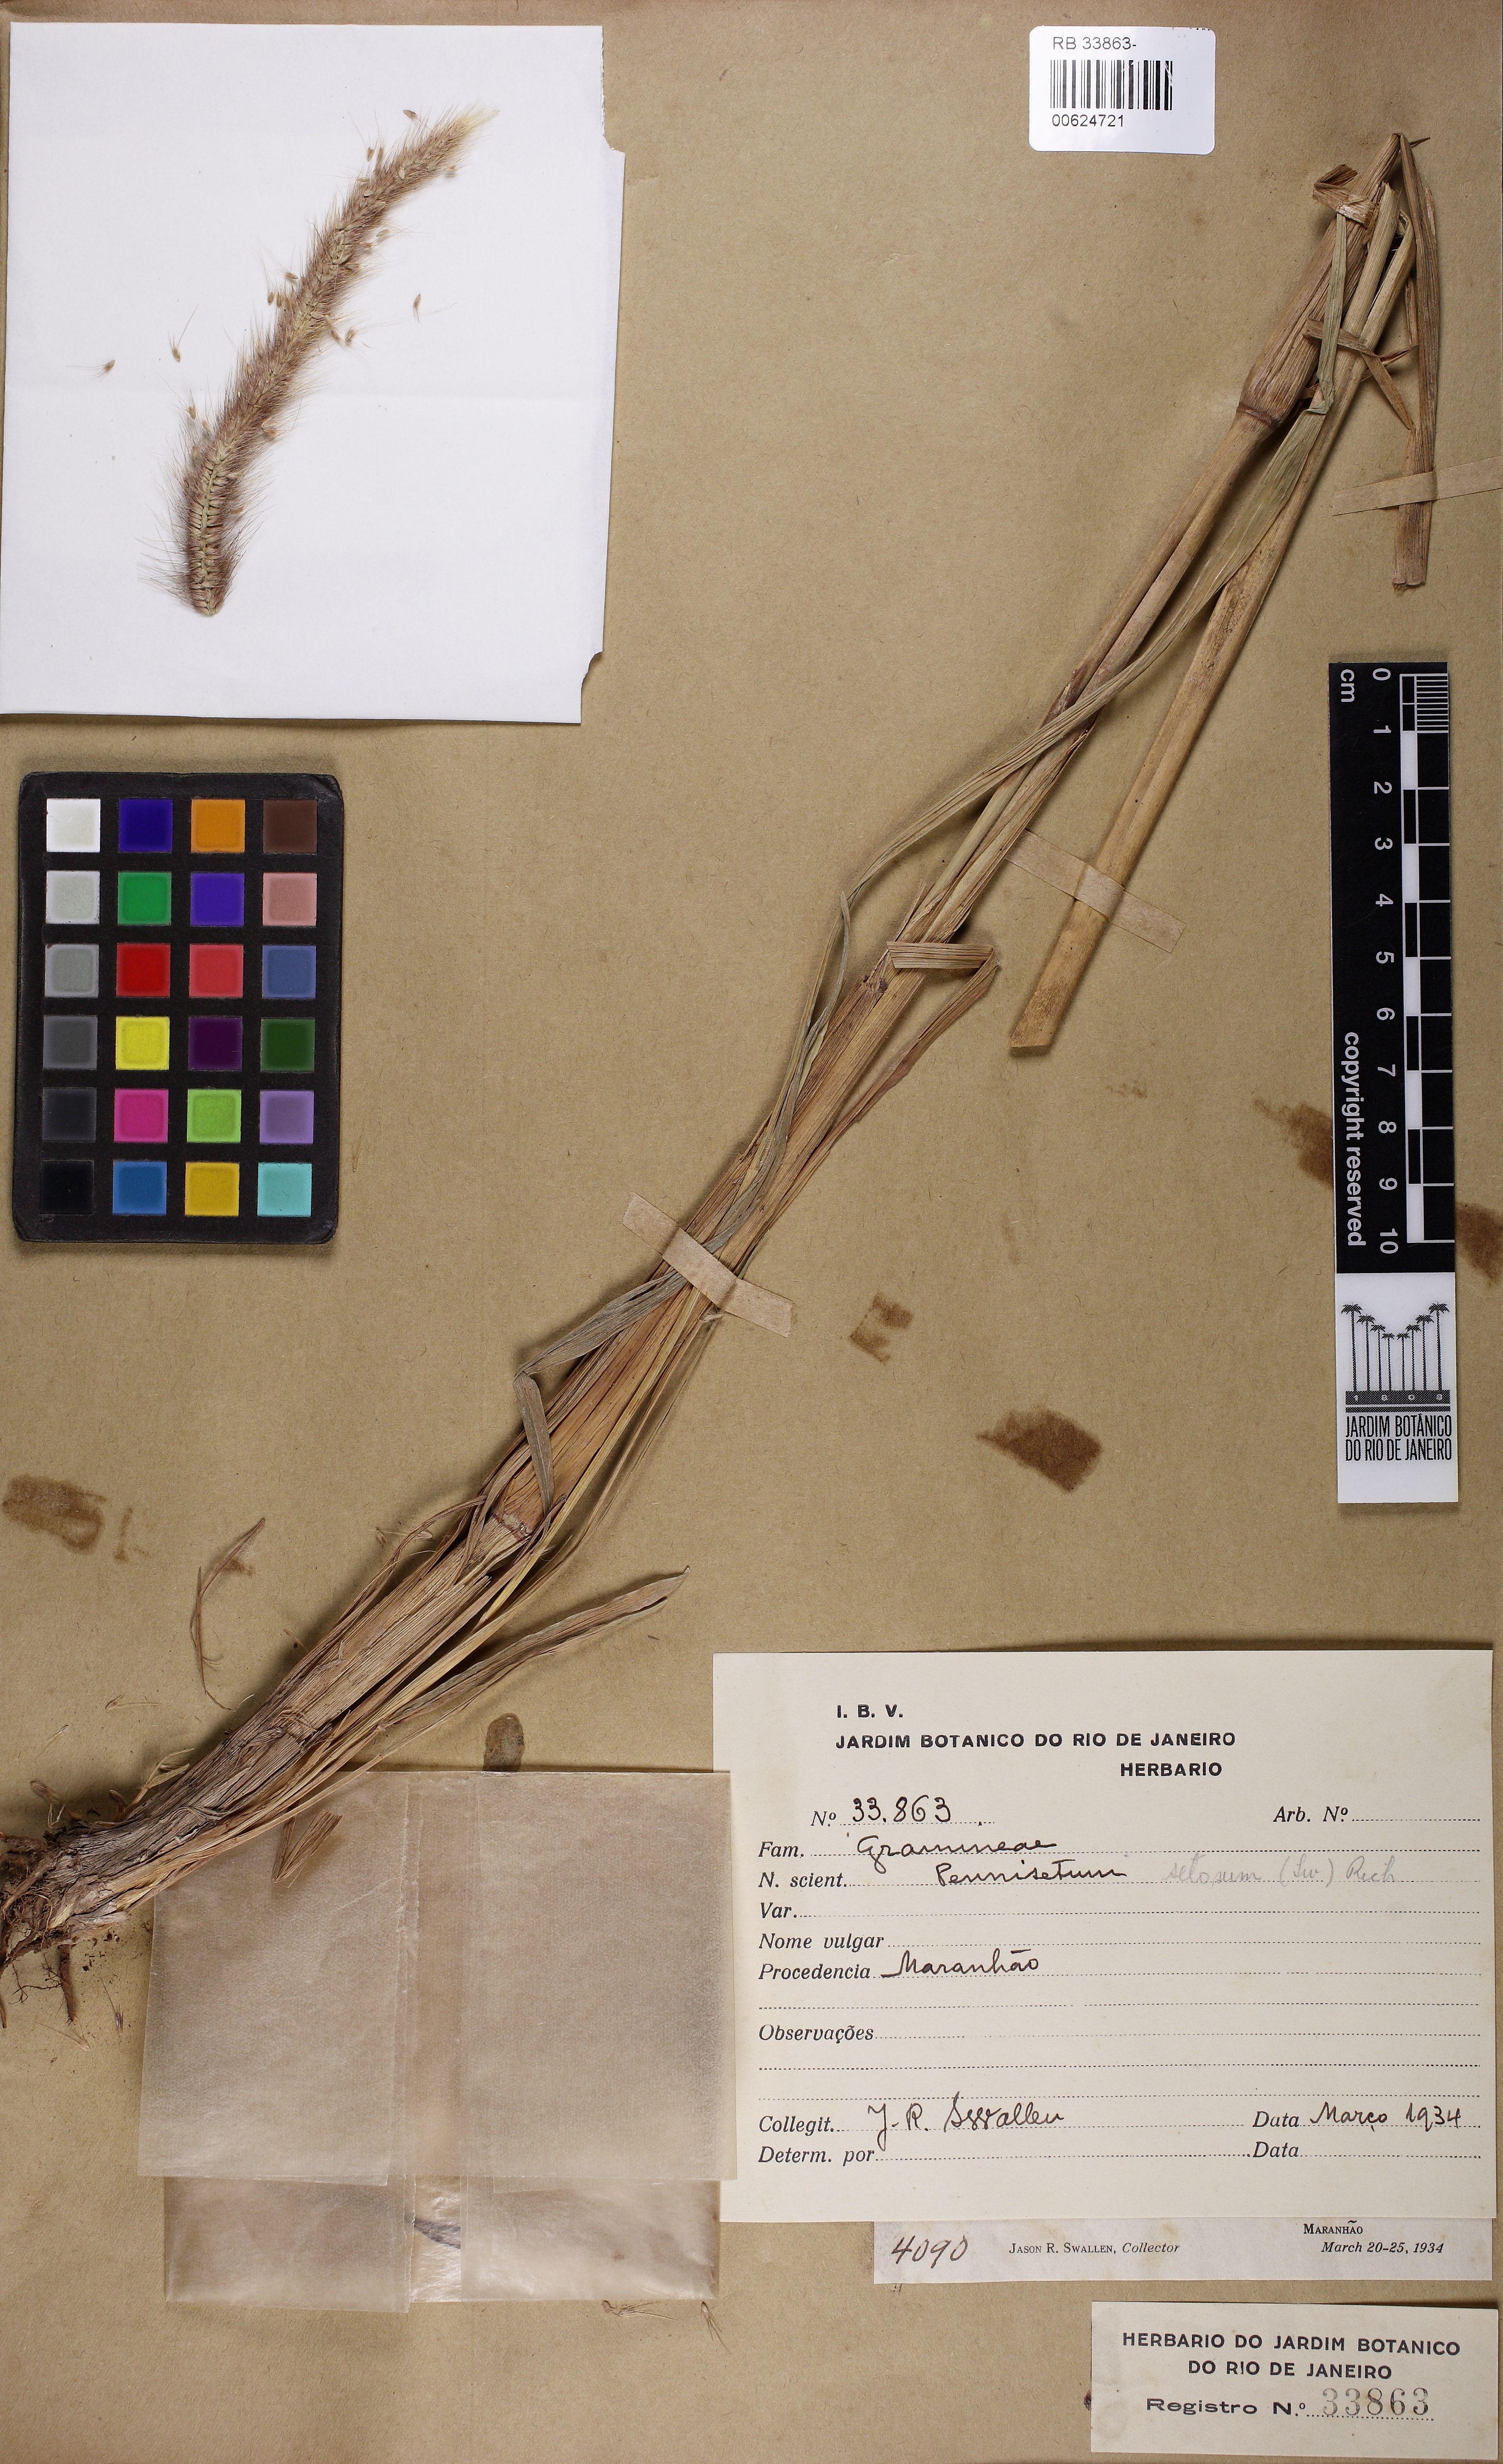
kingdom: Plantae
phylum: Tracheophyta
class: Liliopsida
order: Poales
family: Poaceae
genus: Cenchrus
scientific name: Cenchrus setosus
